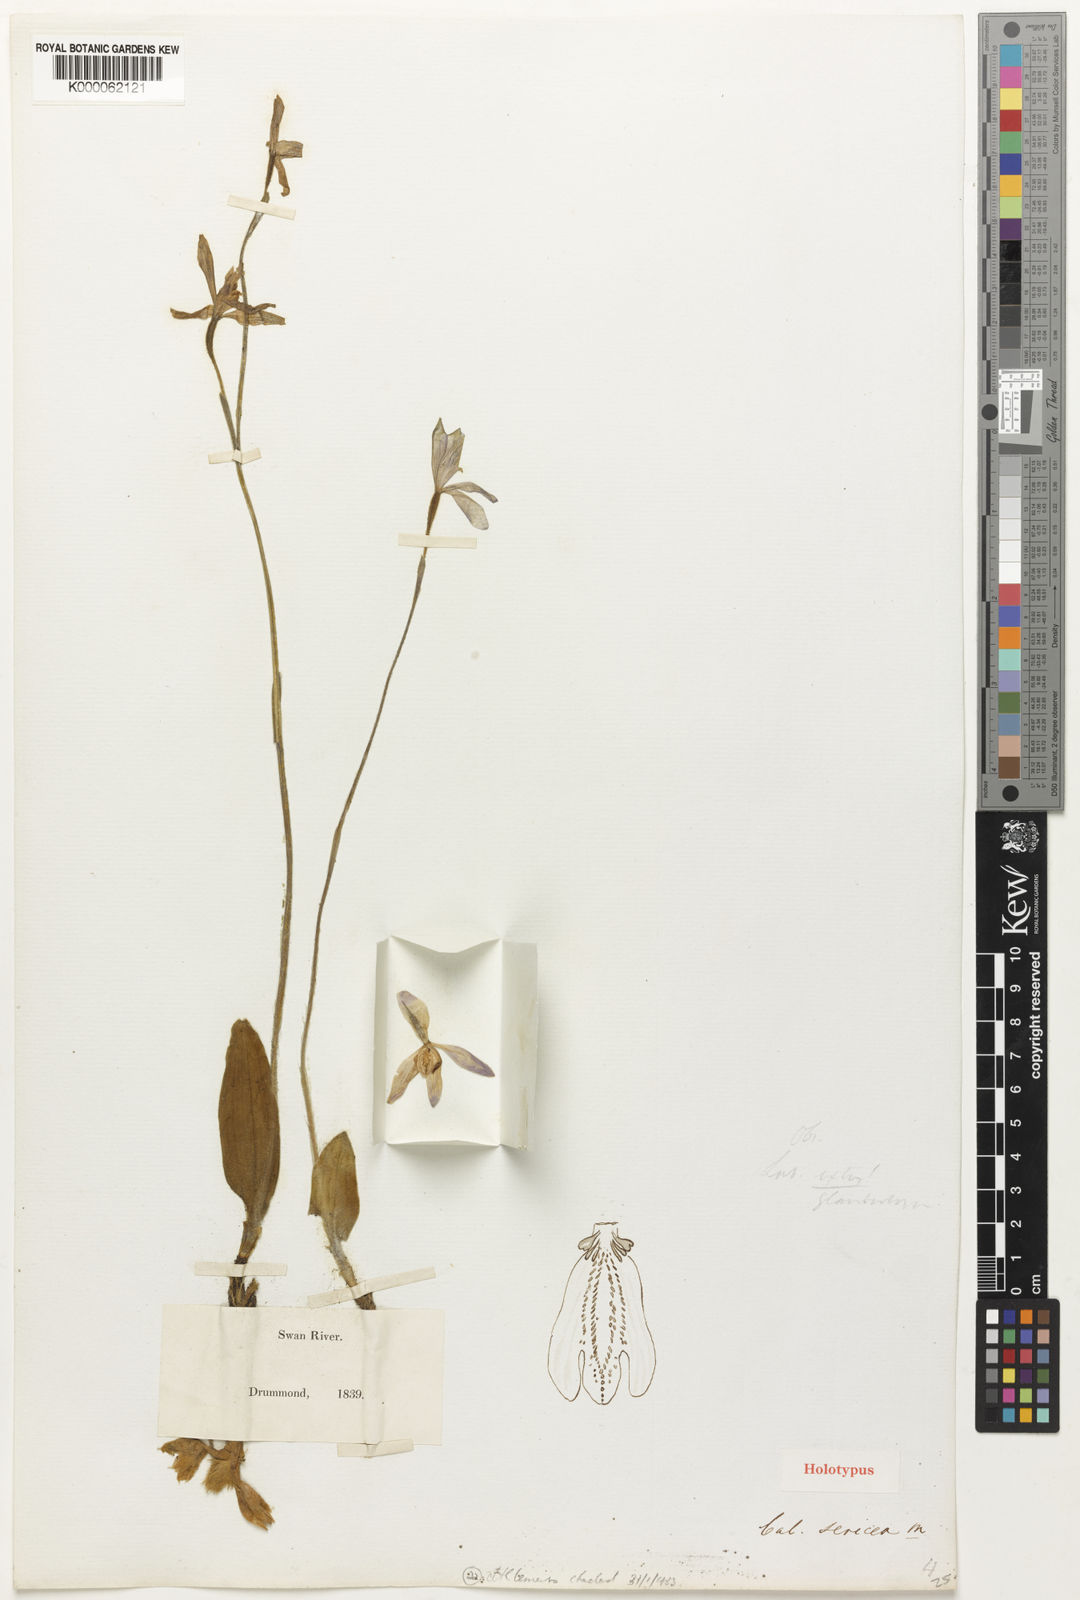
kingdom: Plantae
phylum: Tracheophyta
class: Liliopsida
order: Asparagales
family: Orchidaceae
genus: Caladenia
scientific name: Caladenia sericea
